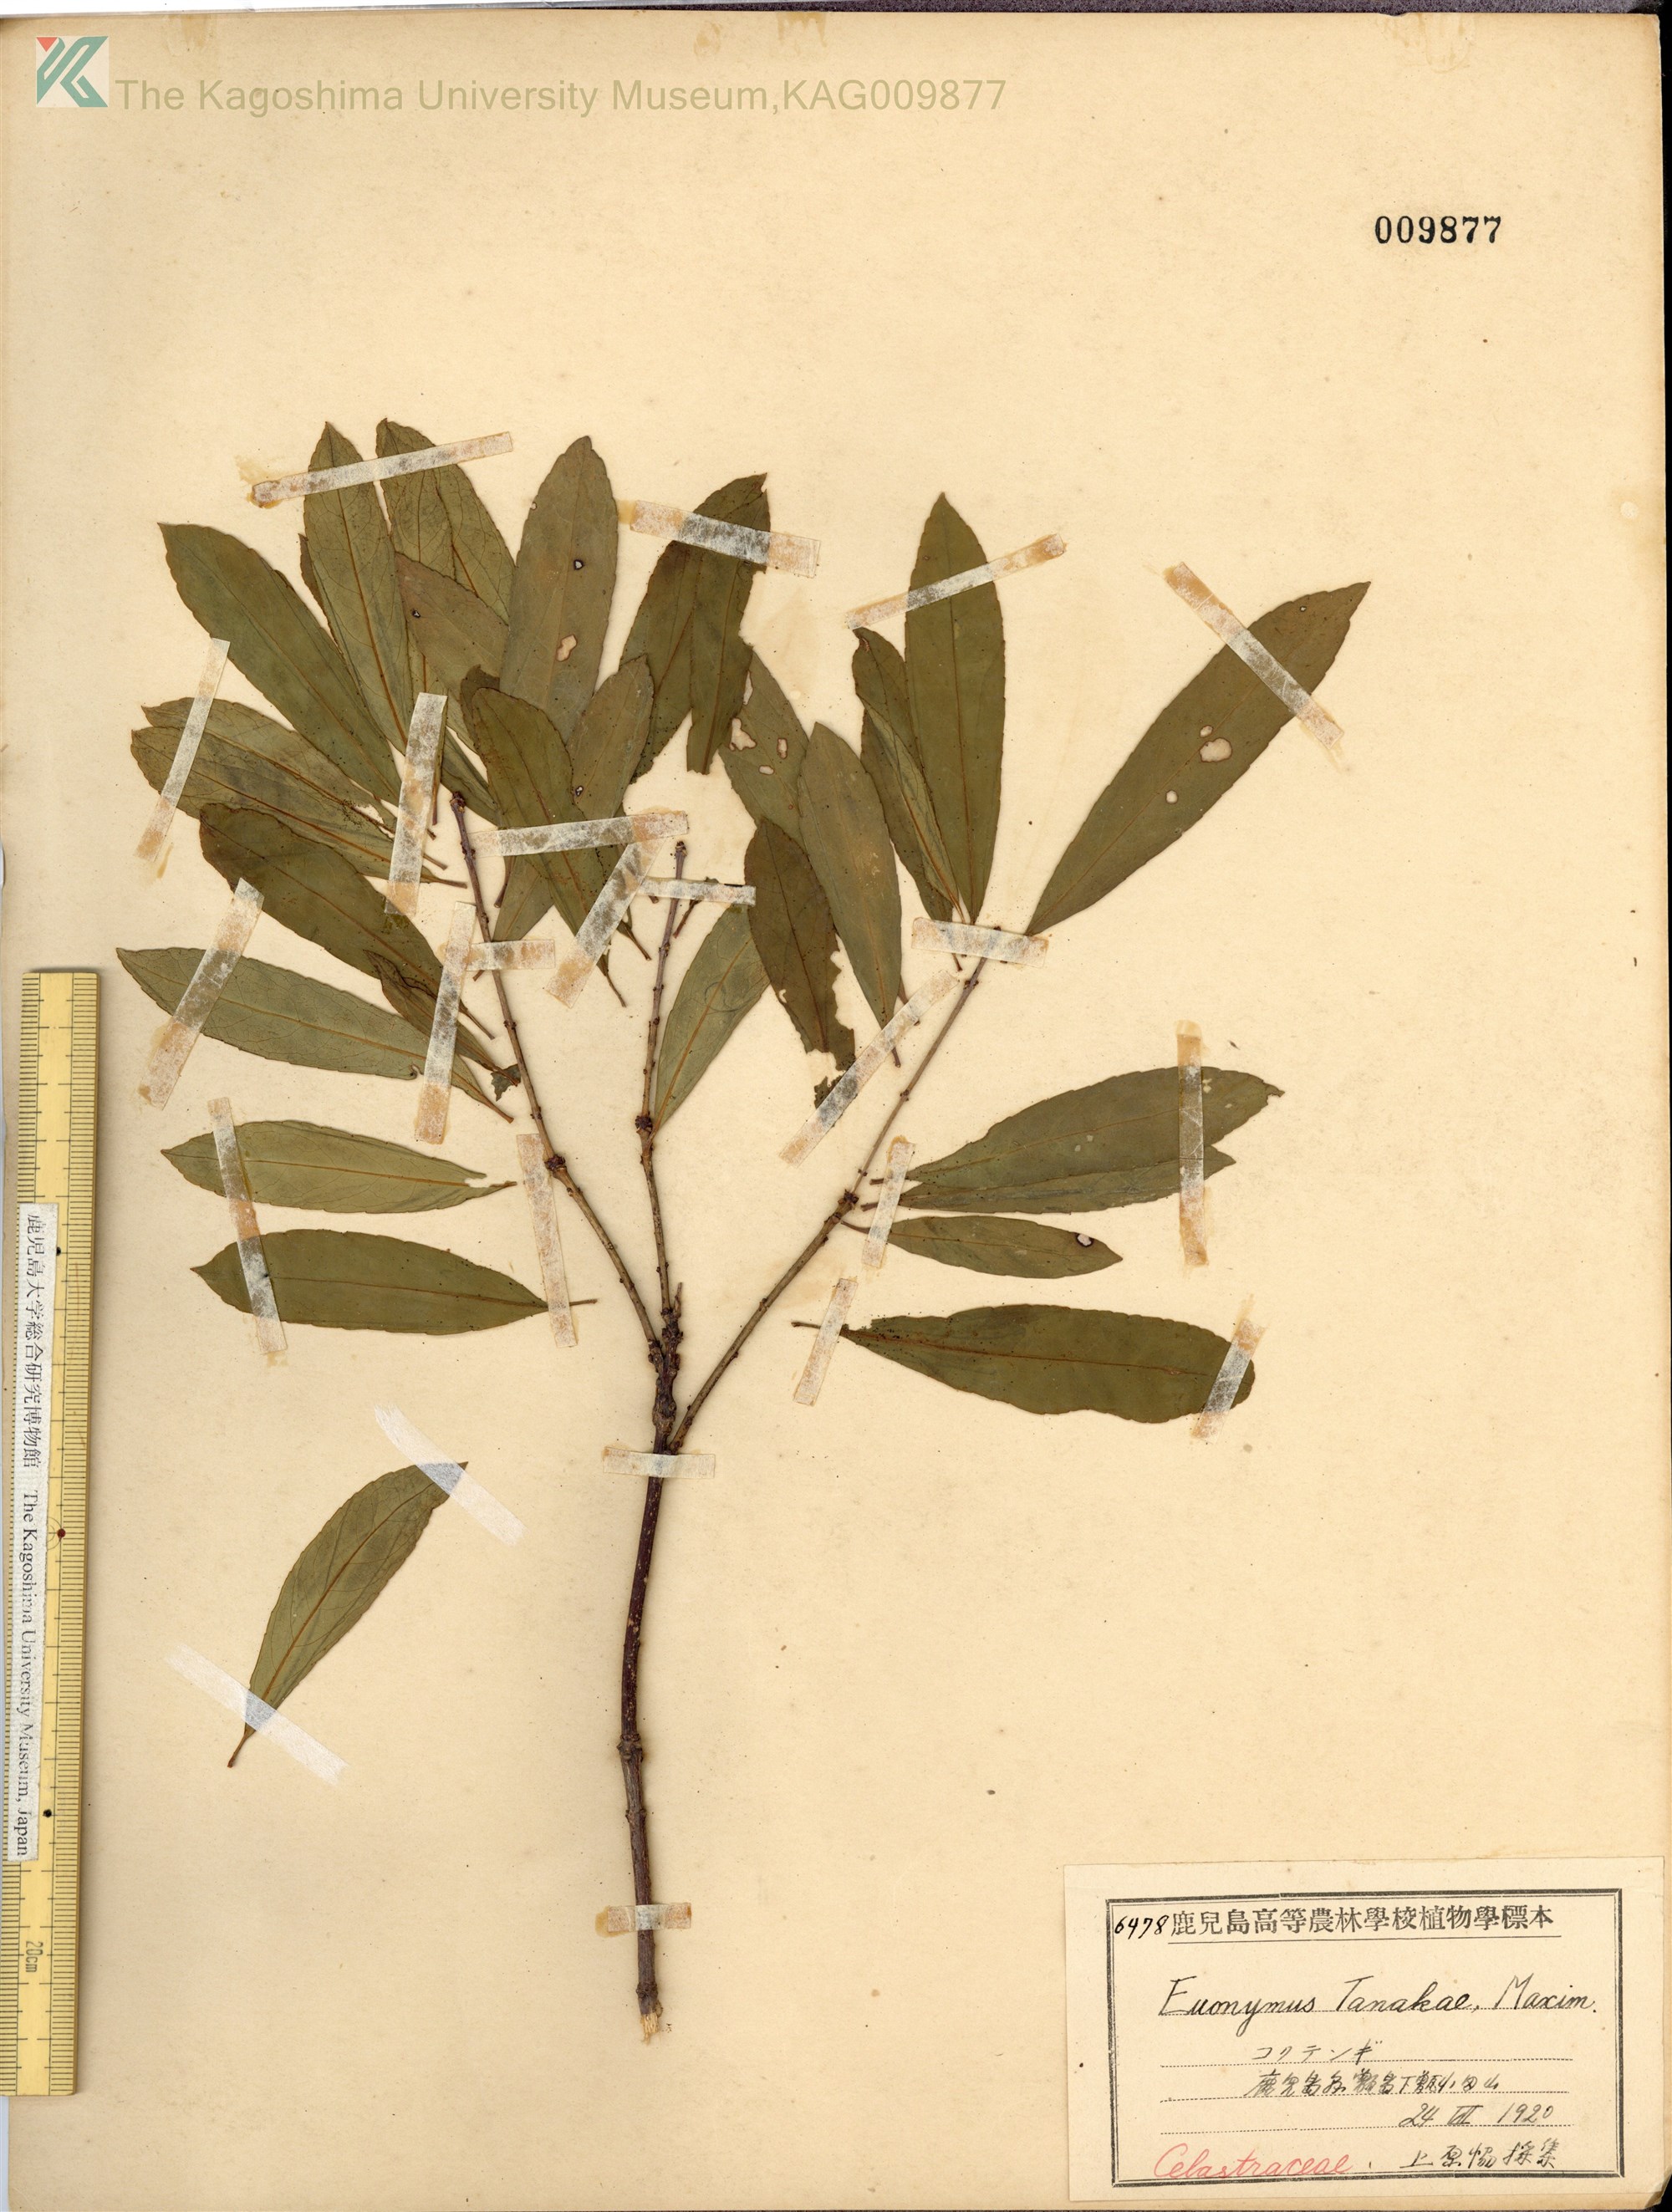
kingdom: Plantae
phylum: Tracheophyta
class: Magnoliopsida
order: Celastrales
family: Celastraceae
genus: Euonymus
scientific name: Euonymus carnosus
